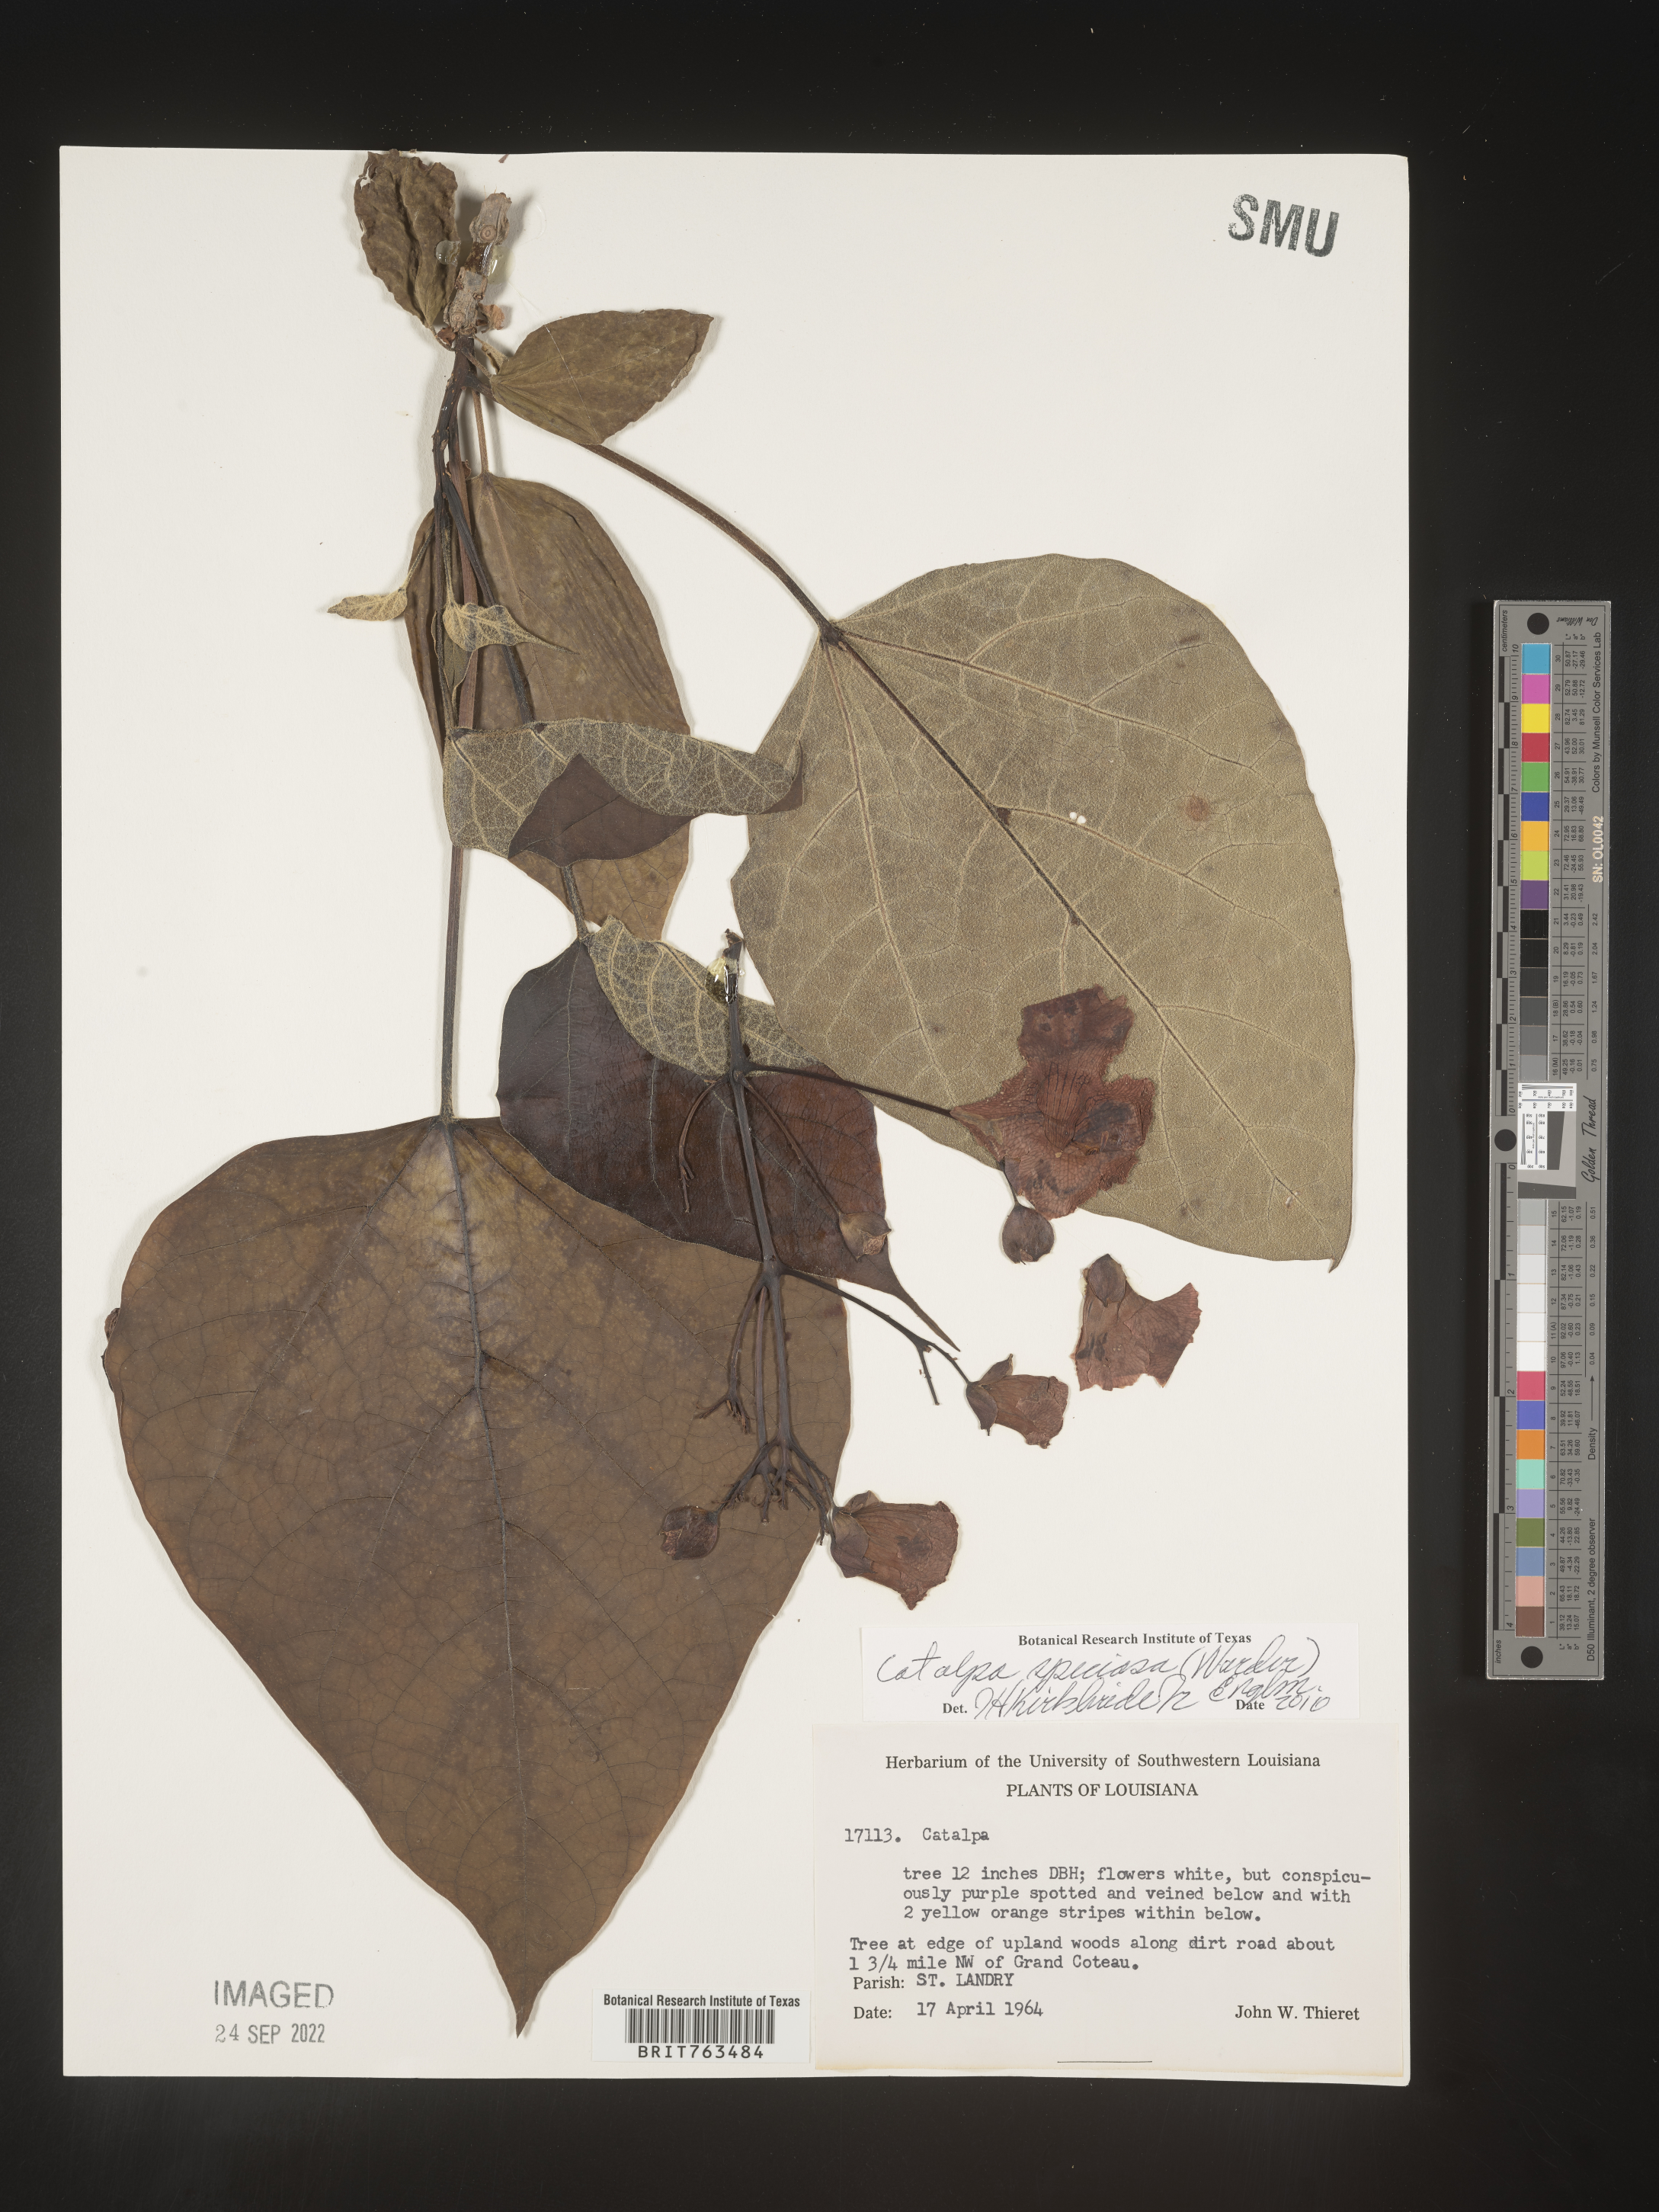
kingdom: Plantae
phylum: Tracheophyta
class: Magnoliopsida
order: Lamiales
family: Bignoniaceae
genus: Catalpa
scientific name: Catalpa speciosa
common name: Northern catalpa
